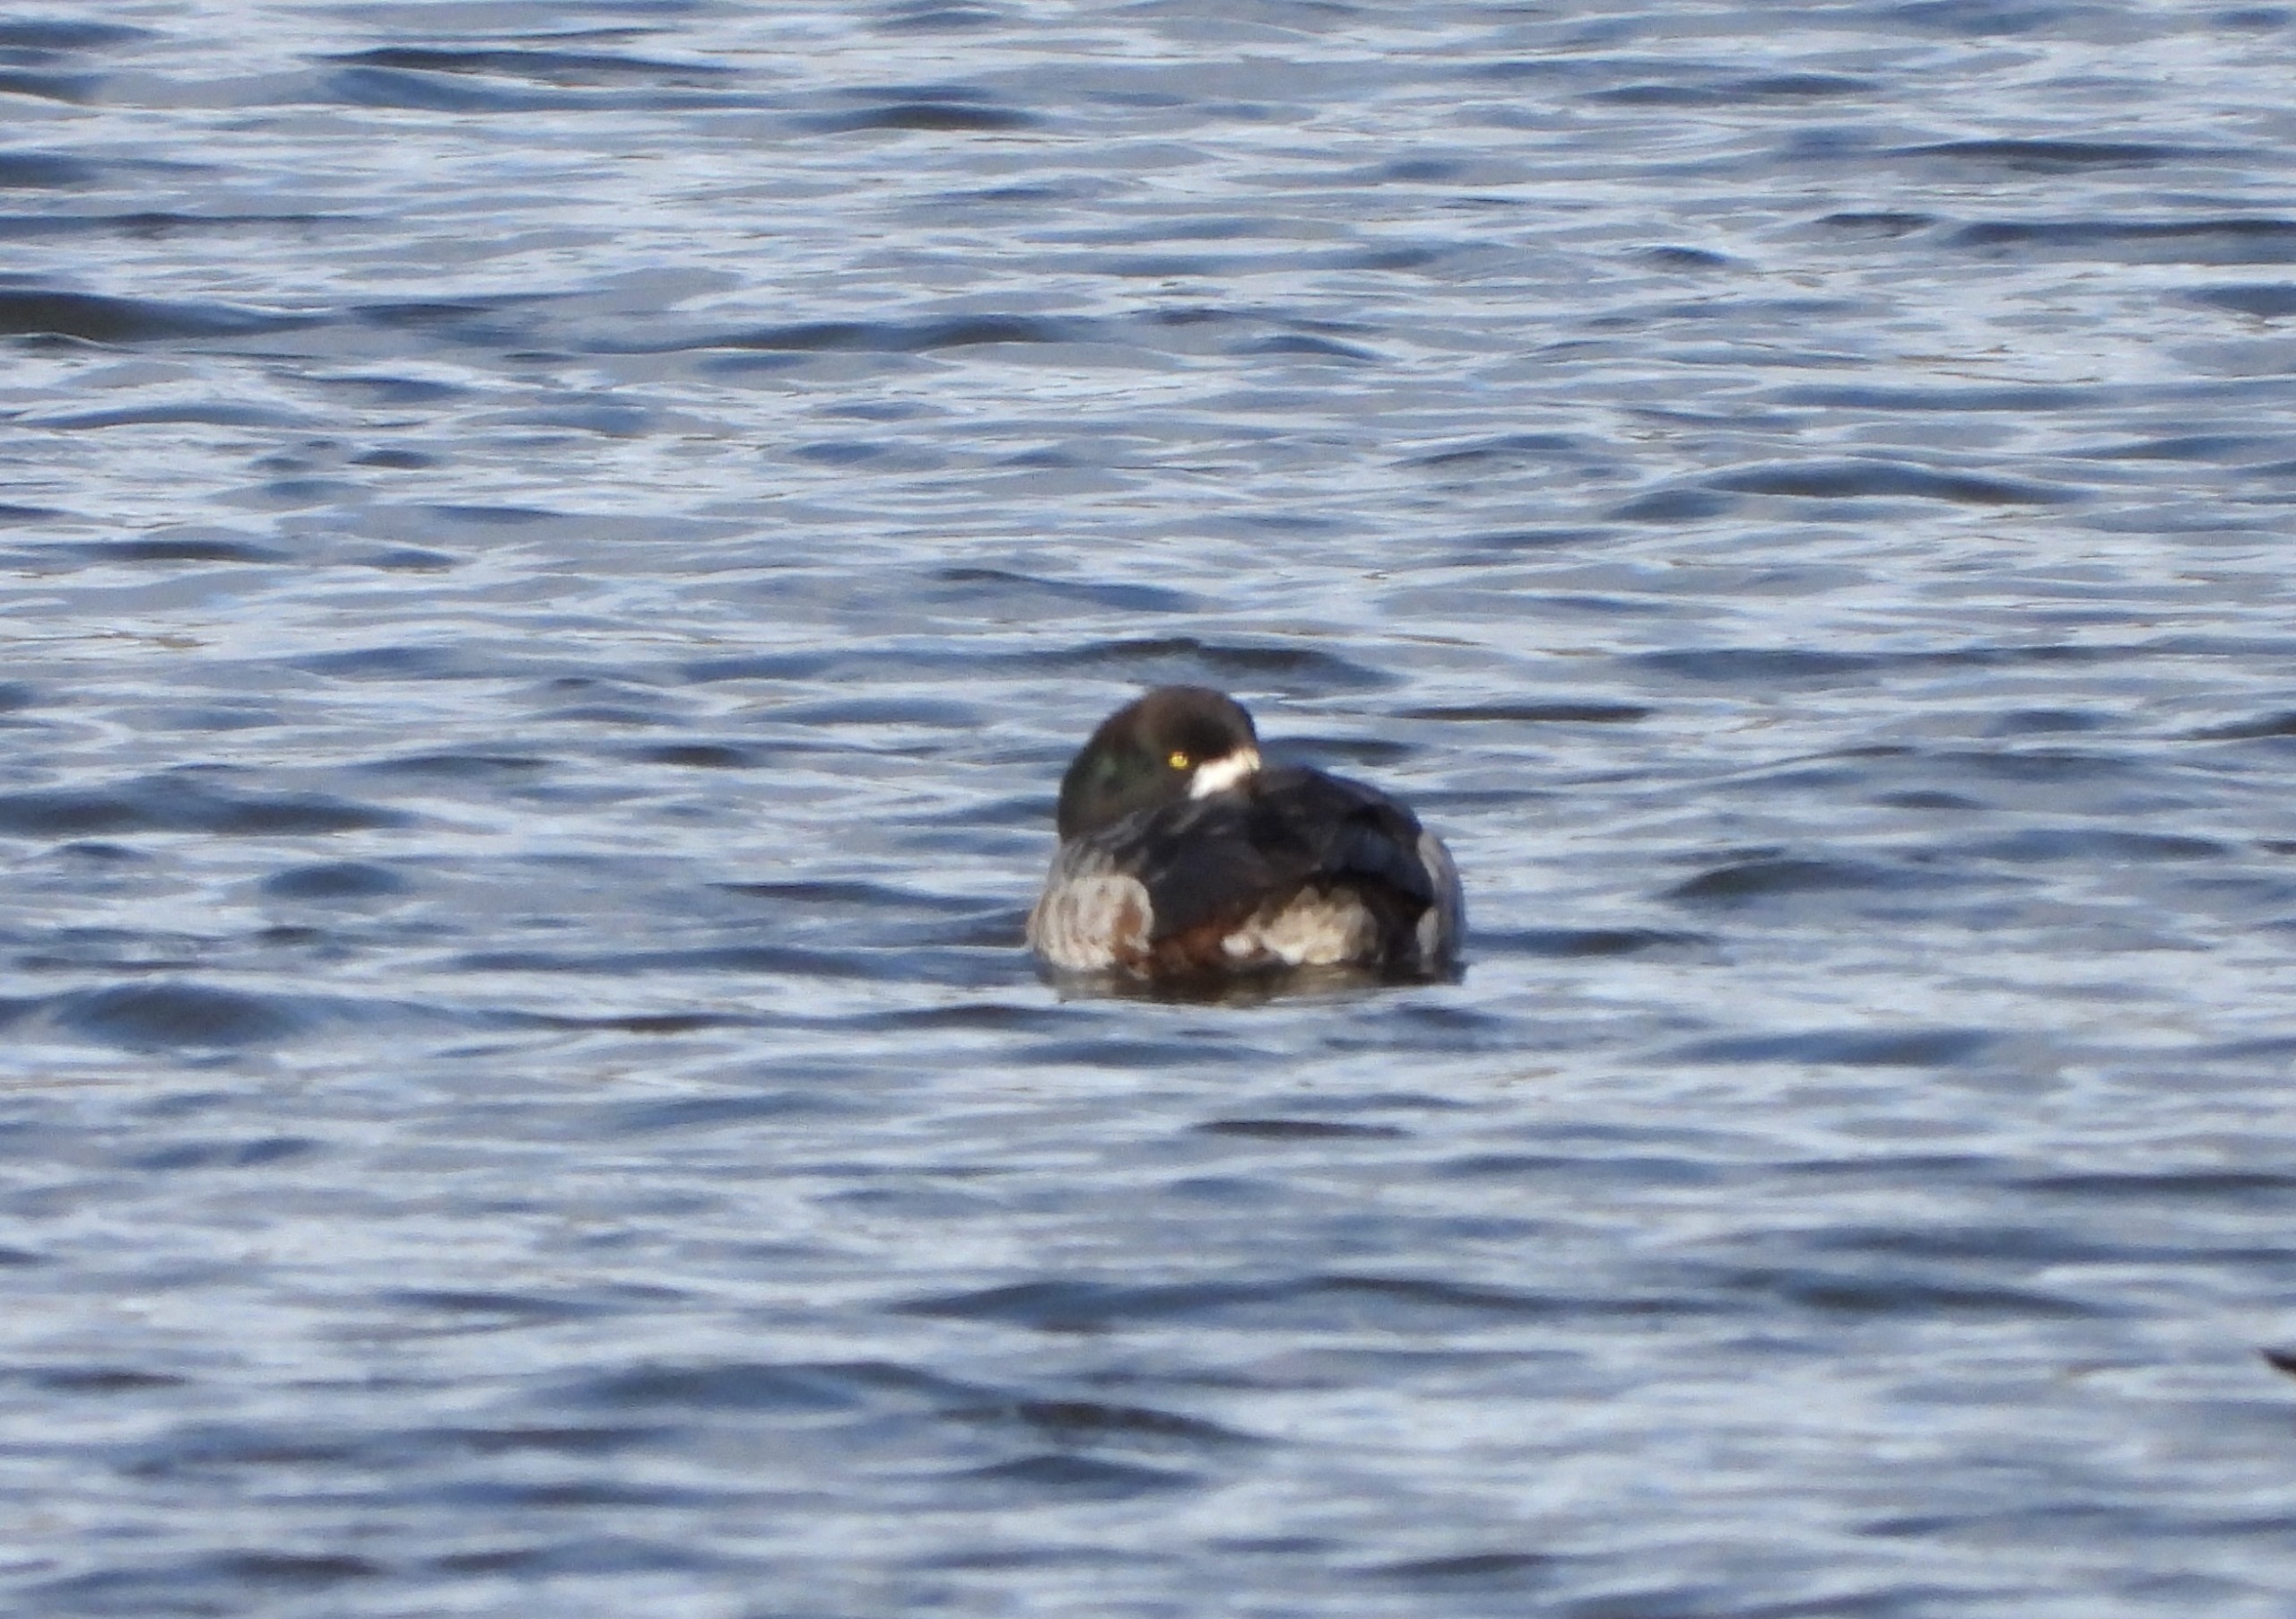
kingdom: Animalia
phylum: Chordata
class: Aves
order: Anseriformes
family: Anatidae
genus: Aythya
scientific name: Aythya marila
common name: Bjergand
